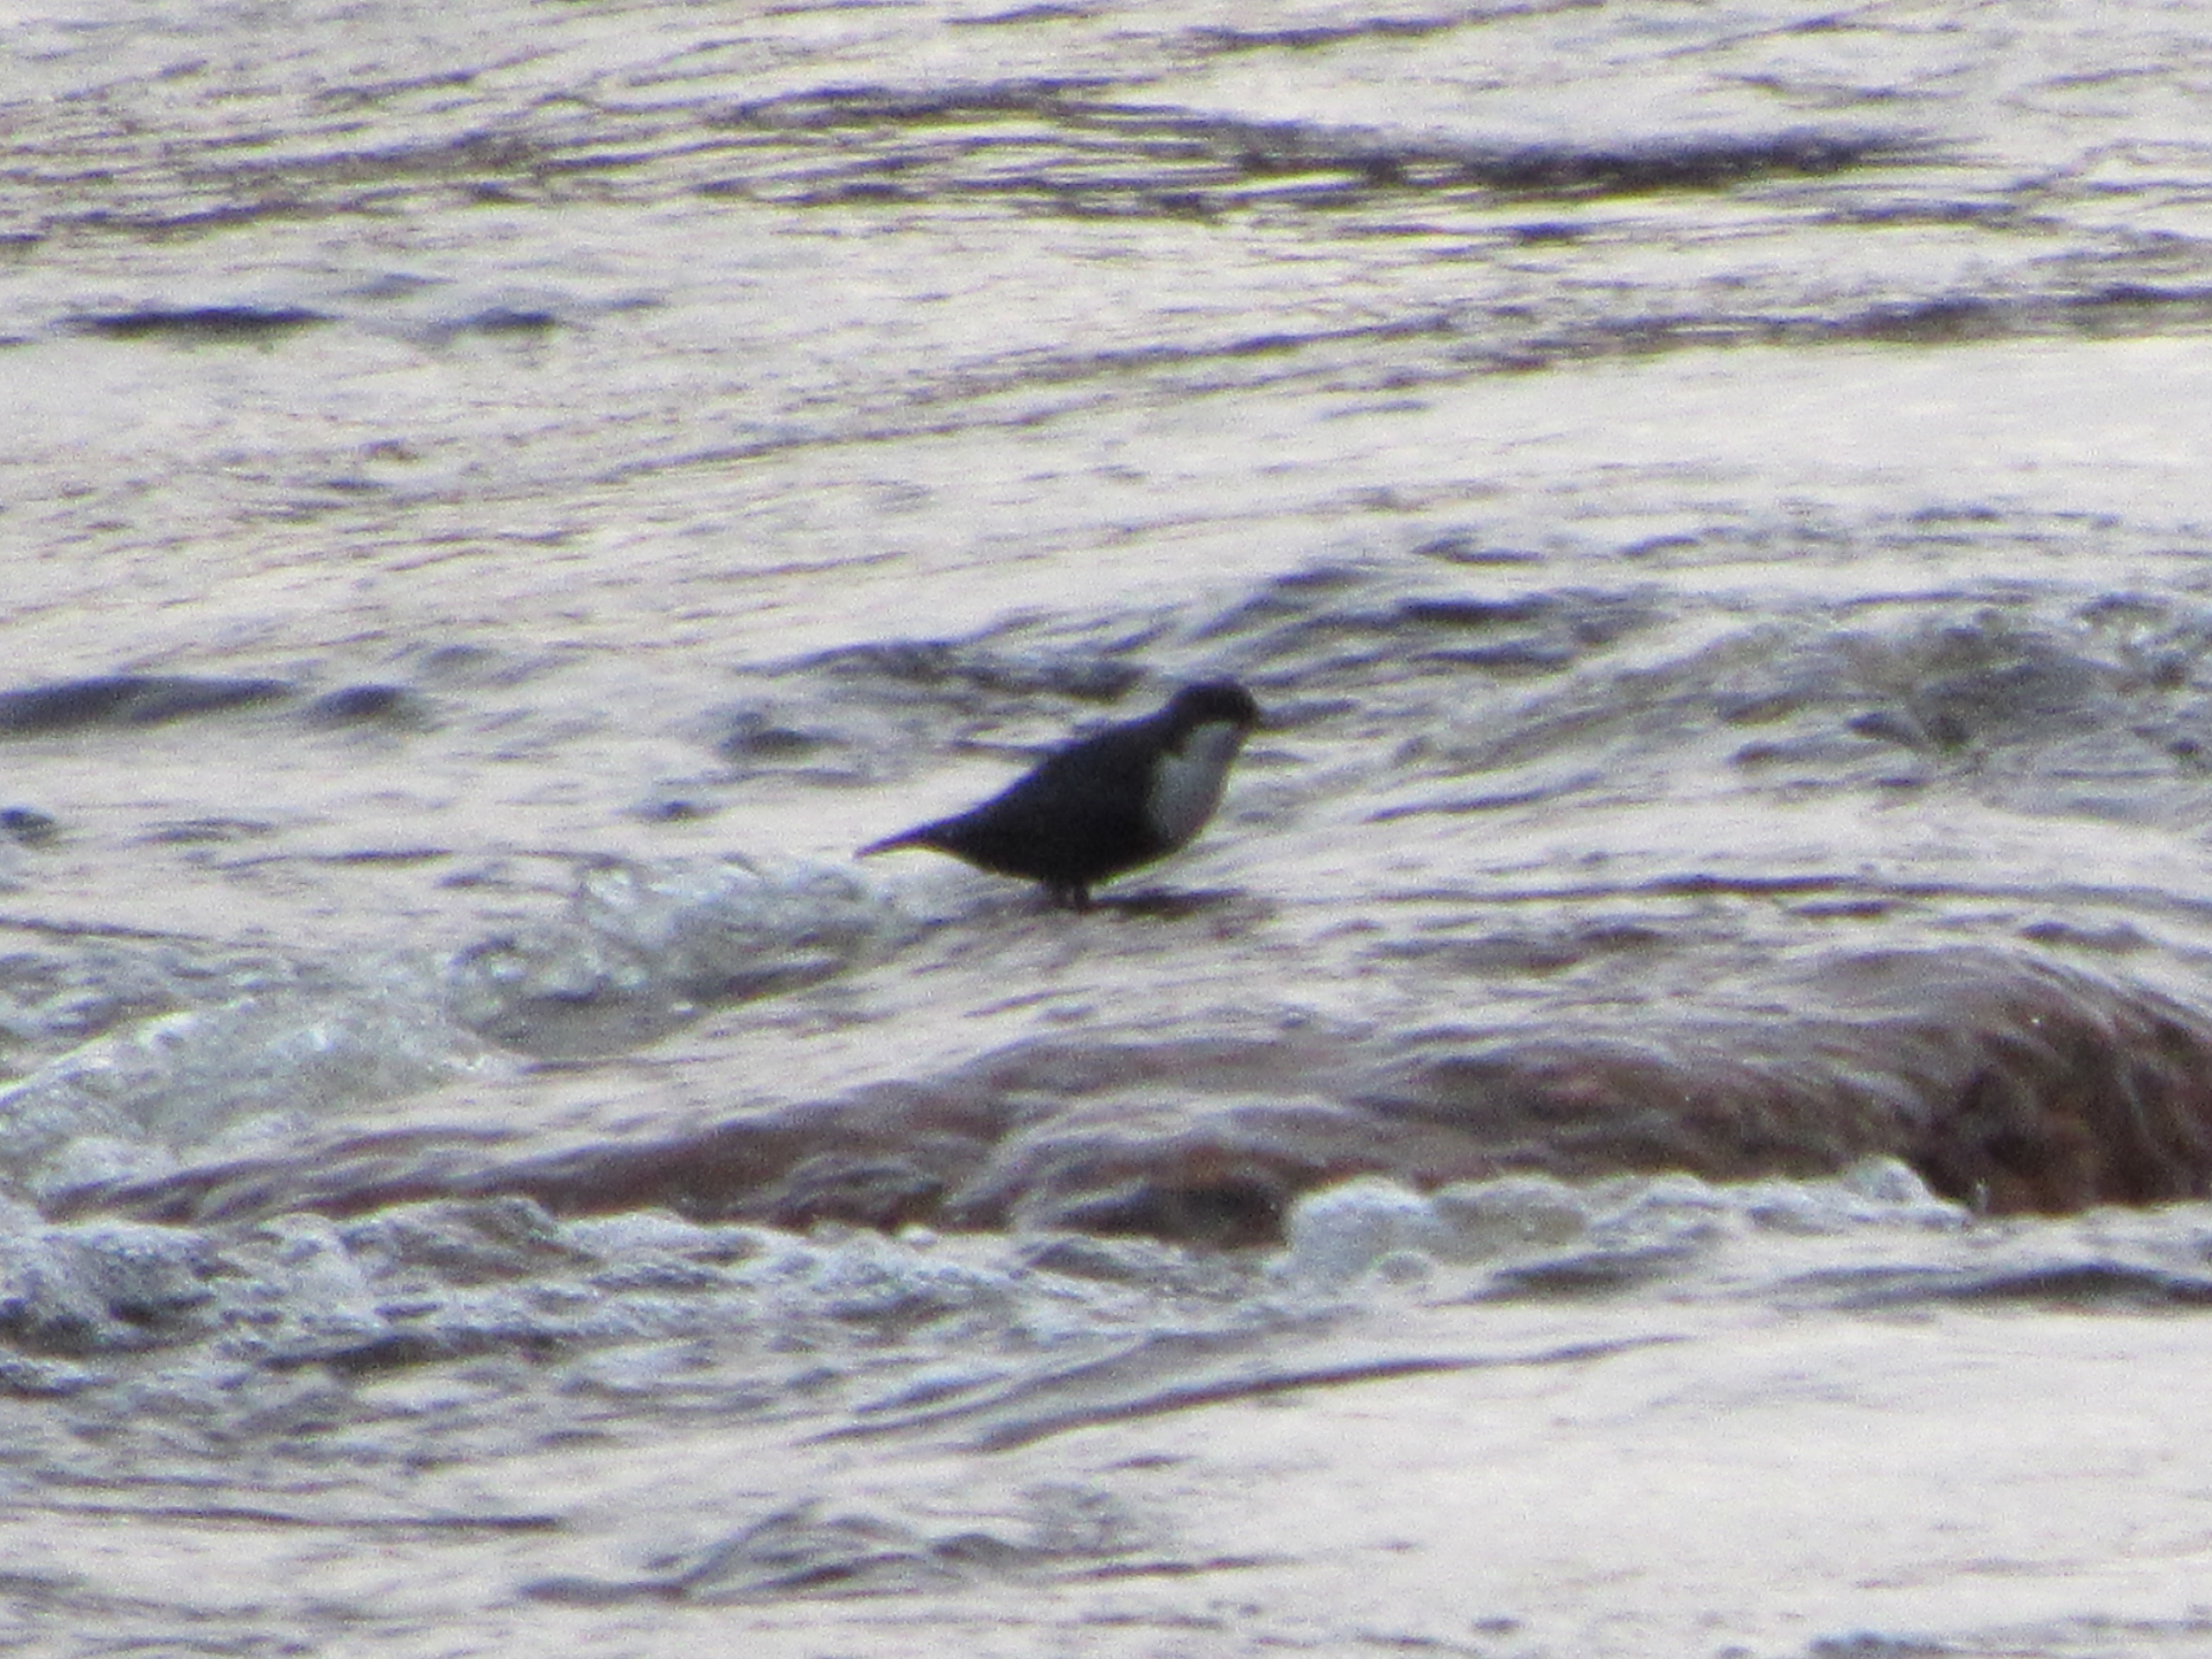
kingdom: Animalia
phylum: Chordata
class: Aves
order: Passeriformes
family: Cinclidae
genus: Cinclus
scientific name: Cinclus cinclus
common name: Vandstær
